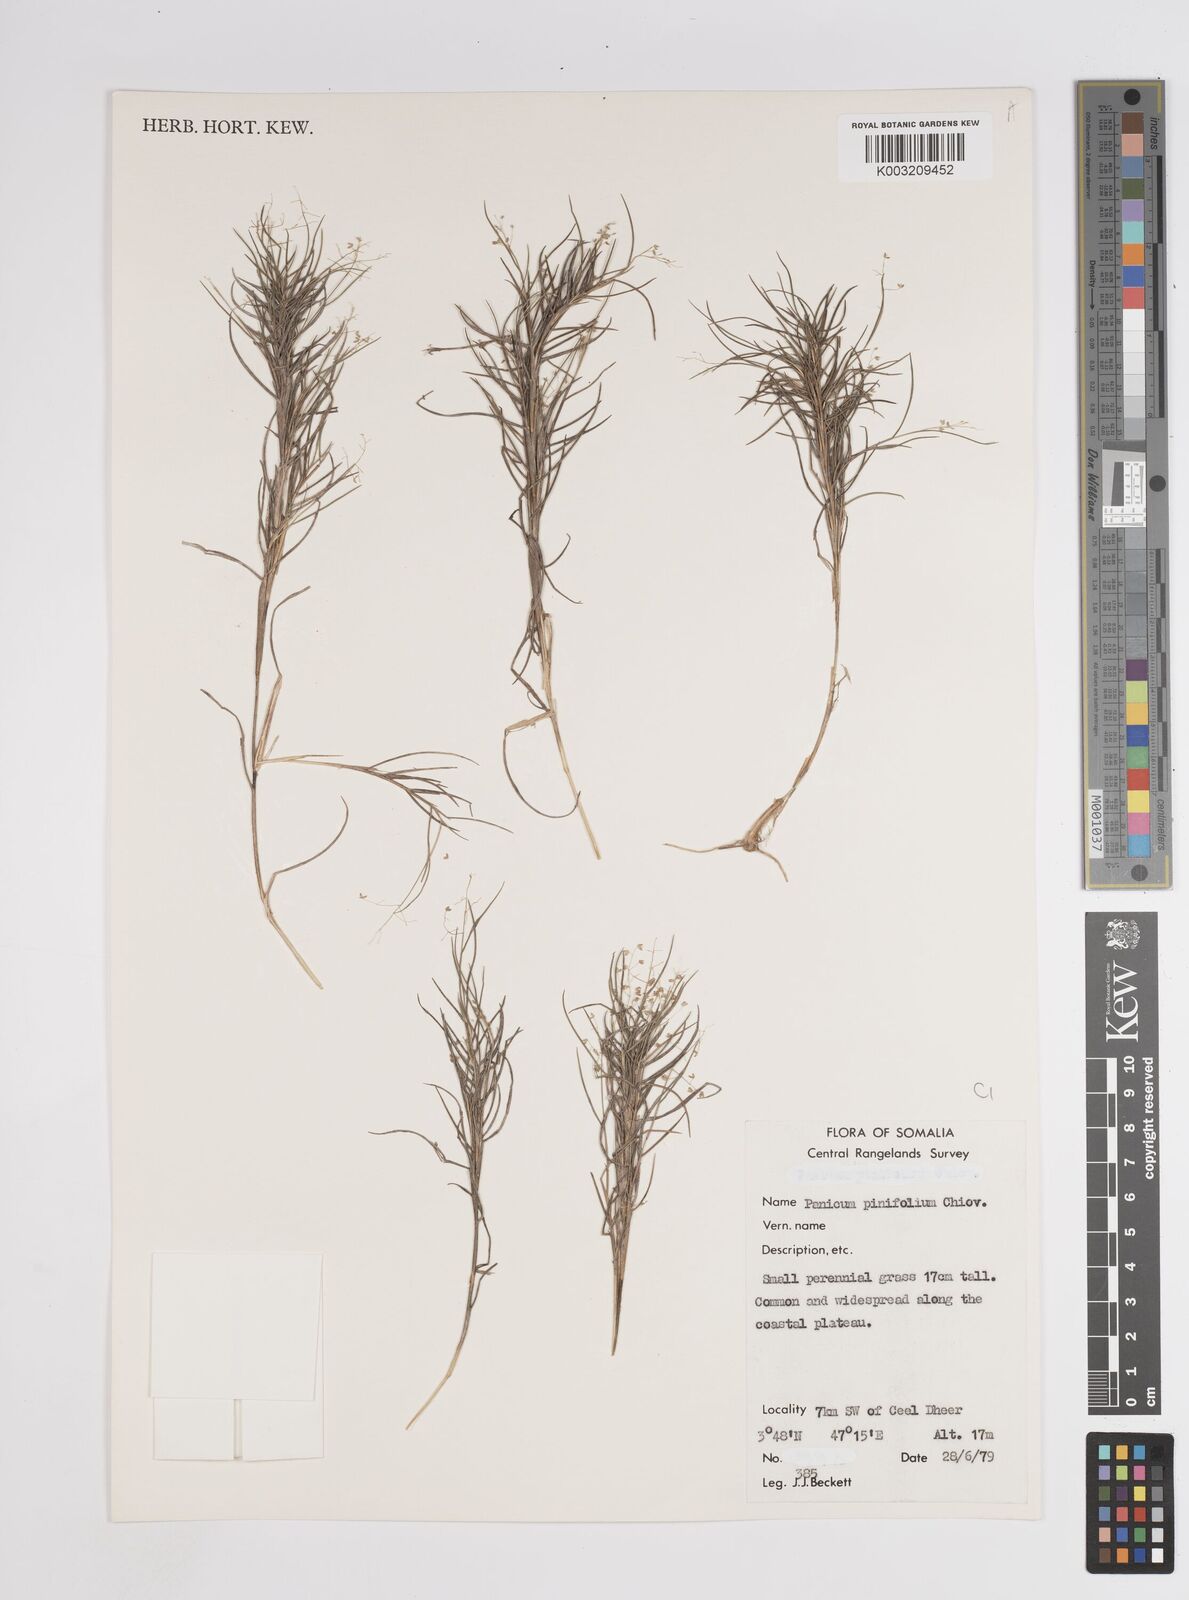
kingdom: Plantae
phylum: Tracheophyta
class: Liliopsida
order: Poales
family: Poaceae
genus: Panicum
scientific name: Panicum pinifolium
